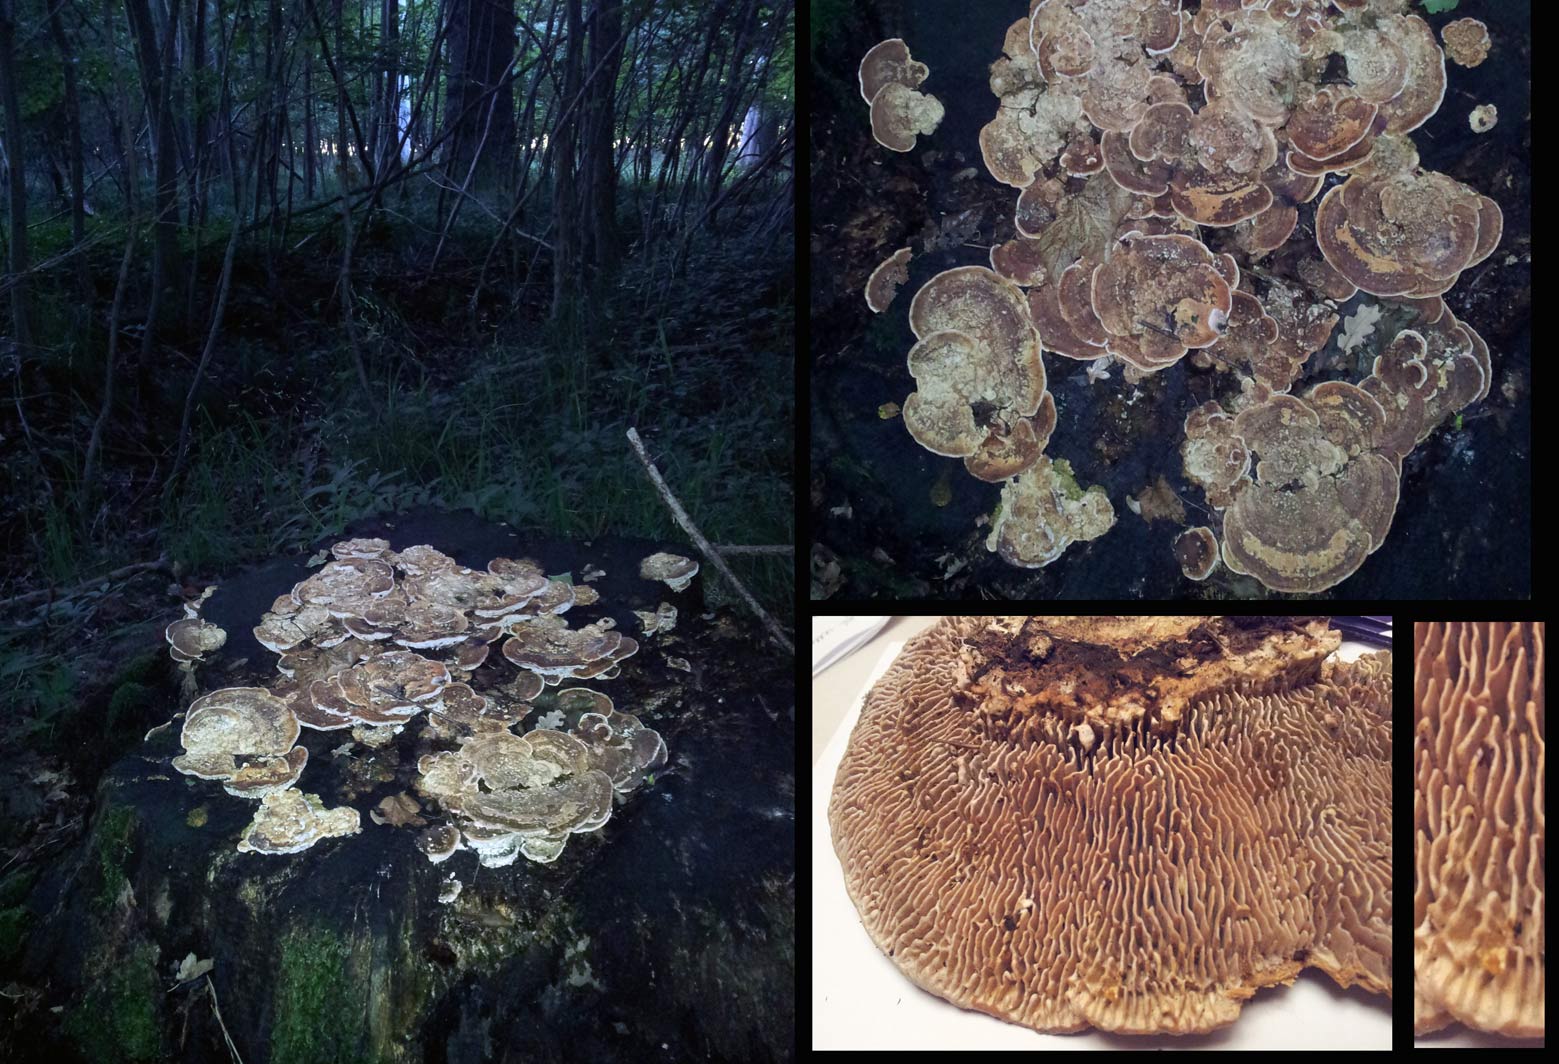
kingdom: Fungi
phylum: Basidiomycota
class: Agaricomycetes
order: Polyporales
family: Fomitopsidaceae
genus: Daedalea
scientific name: Daedalea quercina
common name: ege-labyrintsvamp
